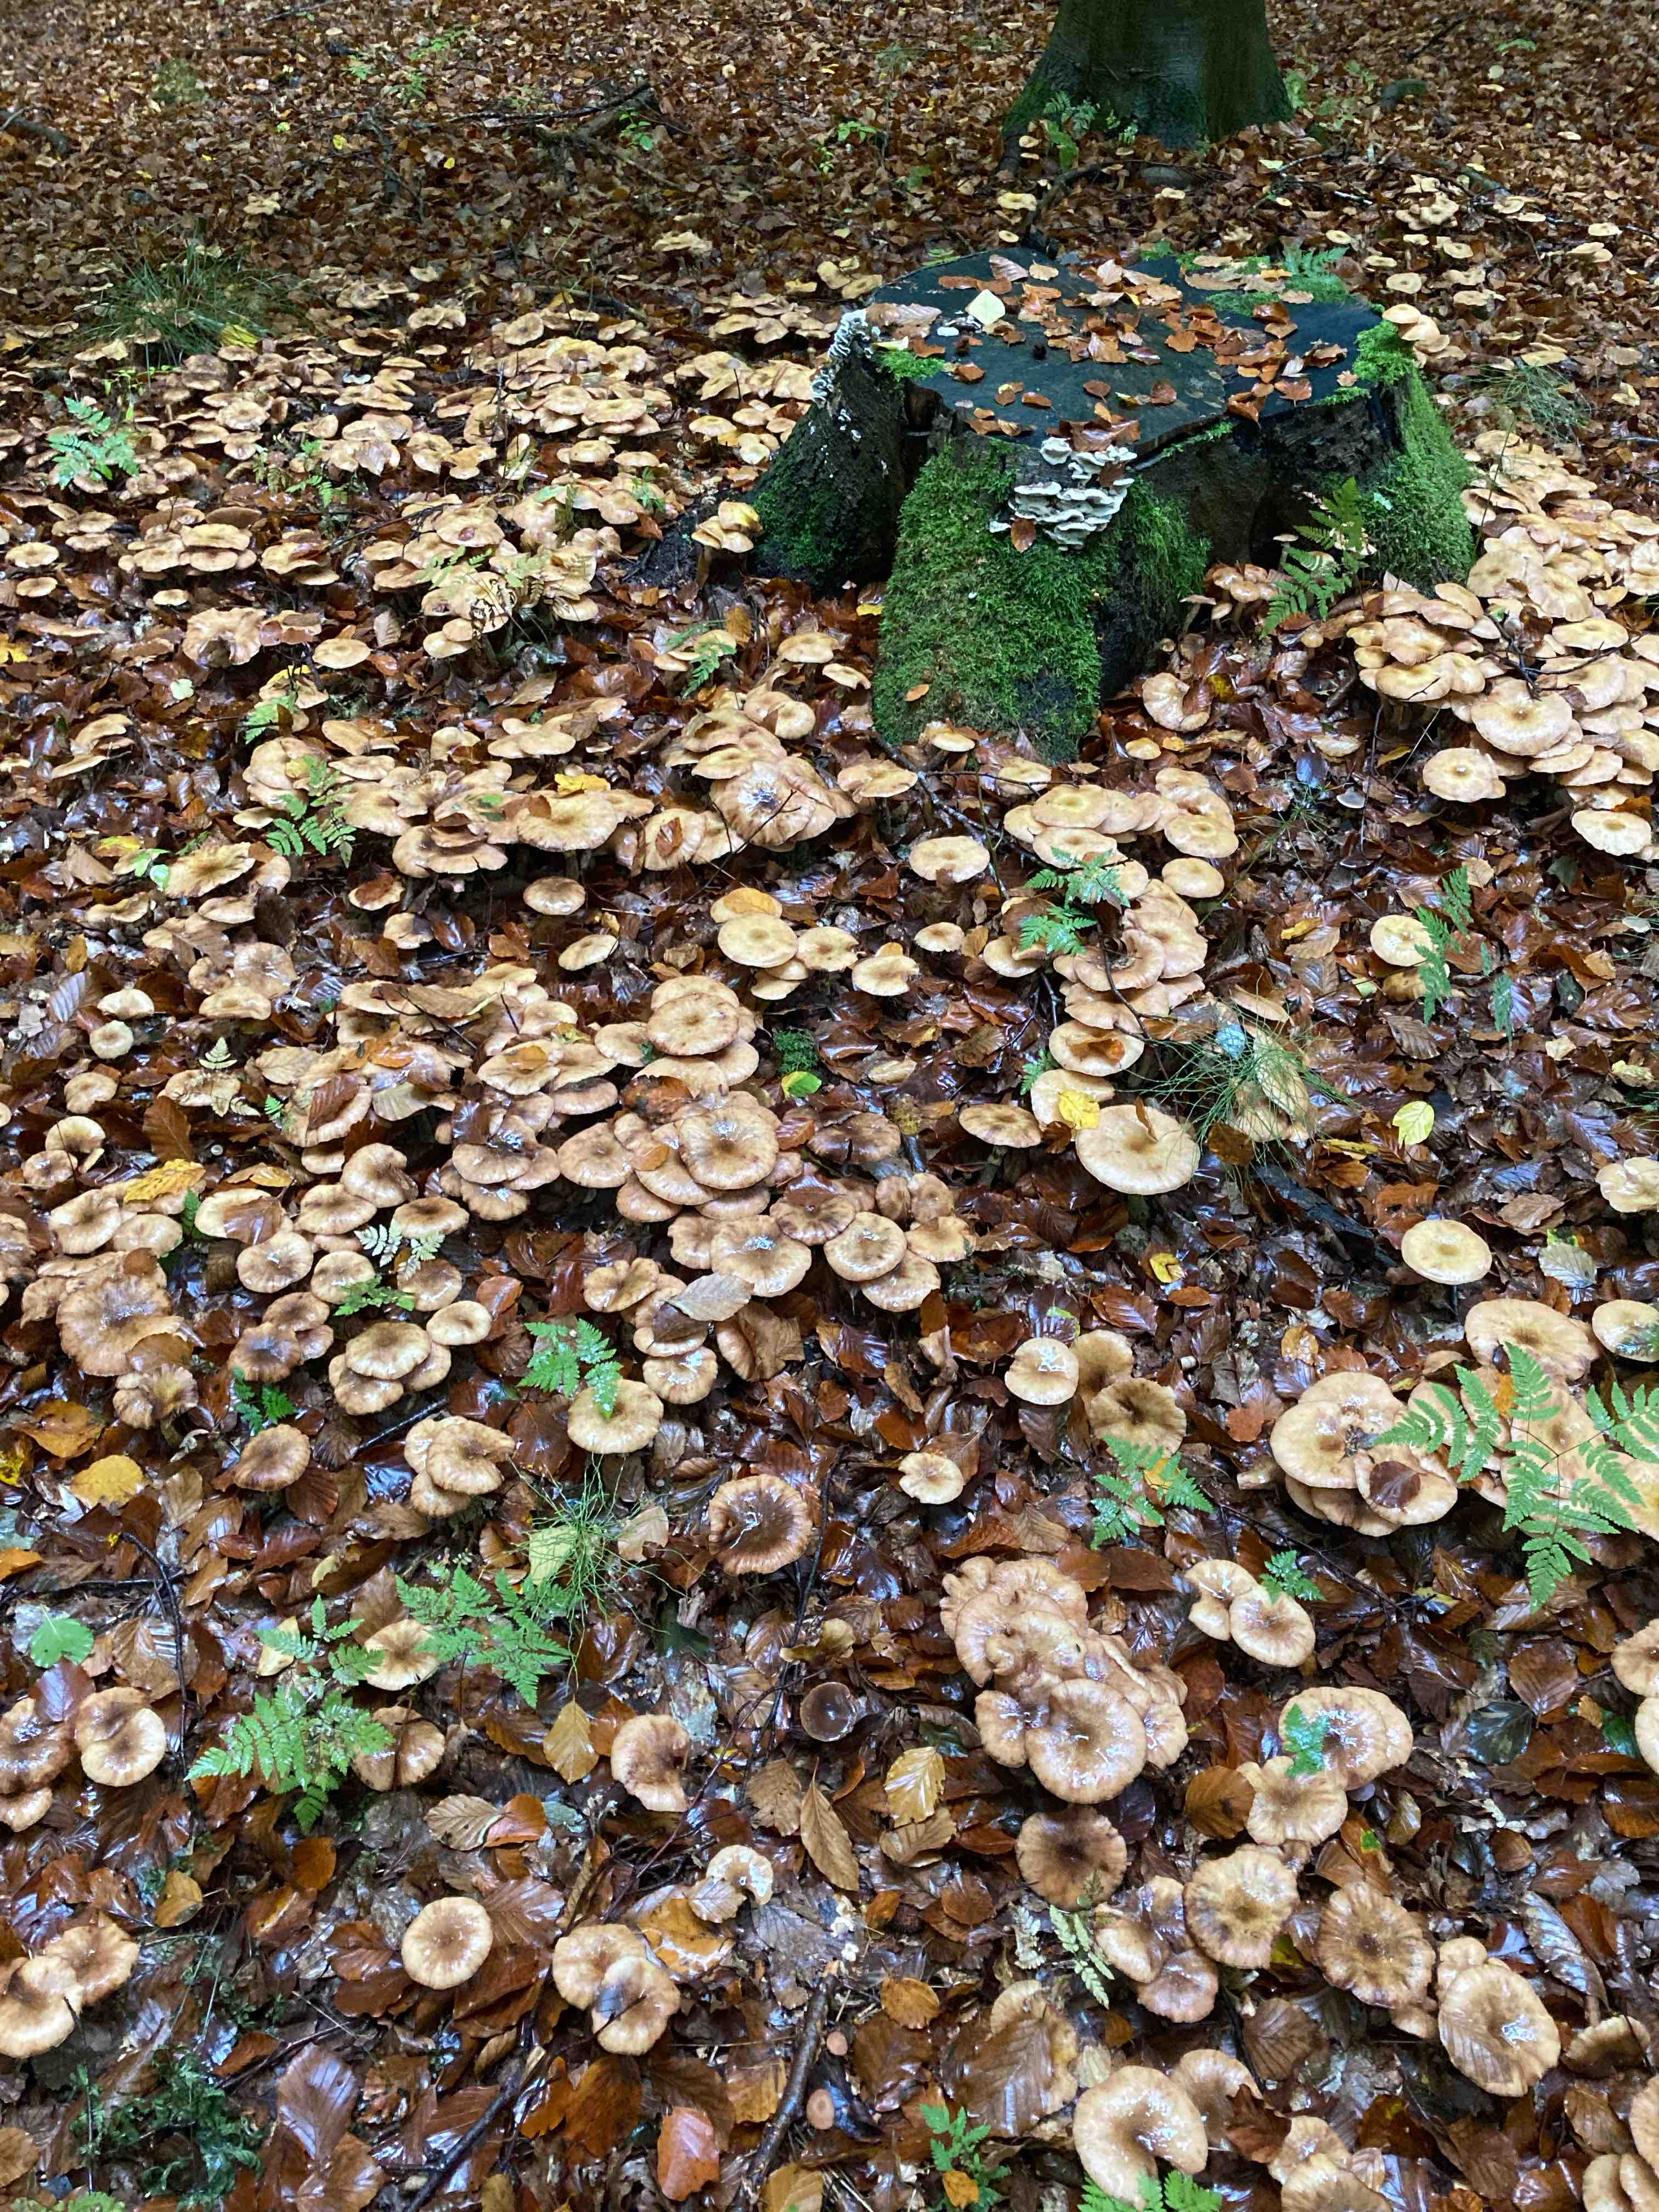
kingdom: Fungi
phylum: Basidiomycota
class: Agaricomycetes
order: Agaricales
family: Physalacriaceae
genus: Armillaria
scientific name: Armillaria lutea
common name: køllestokket honningsvamp
